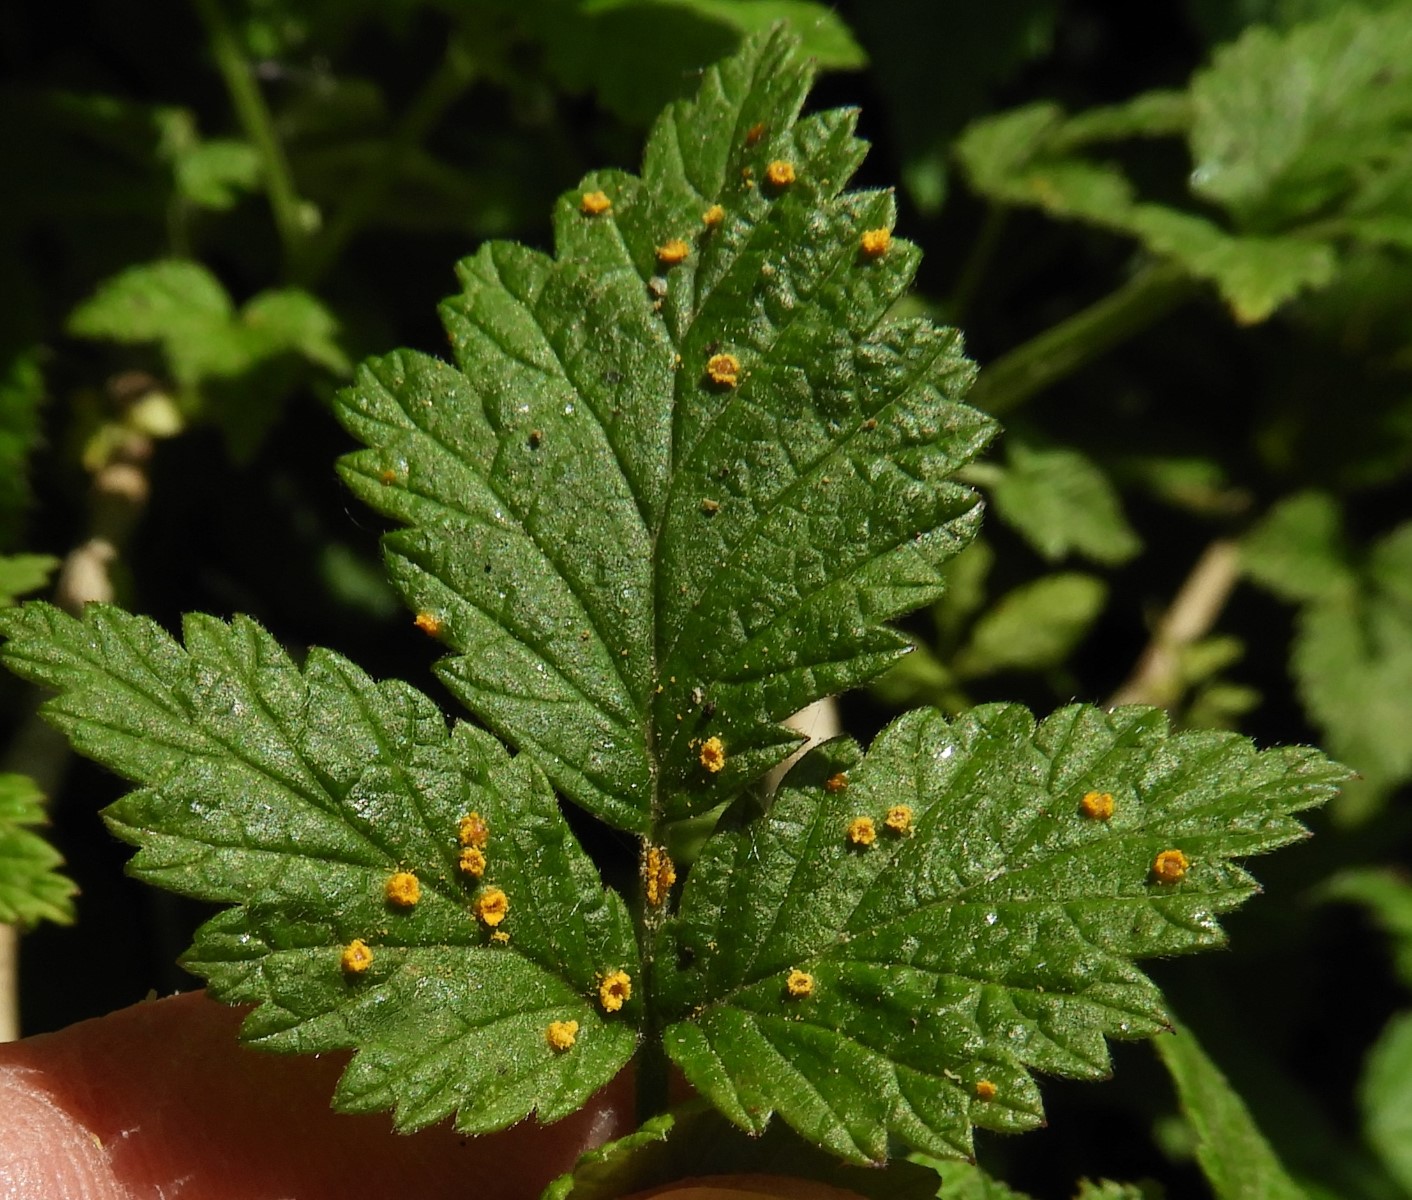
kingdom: Fungi
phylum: Basidiomycota
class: Pucciniomycetes
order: Pucciniales
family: Phragmidiaceae
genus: Phragmidium
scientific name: Phragmidium rubi-idaei
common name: hindbær-flercellerust
